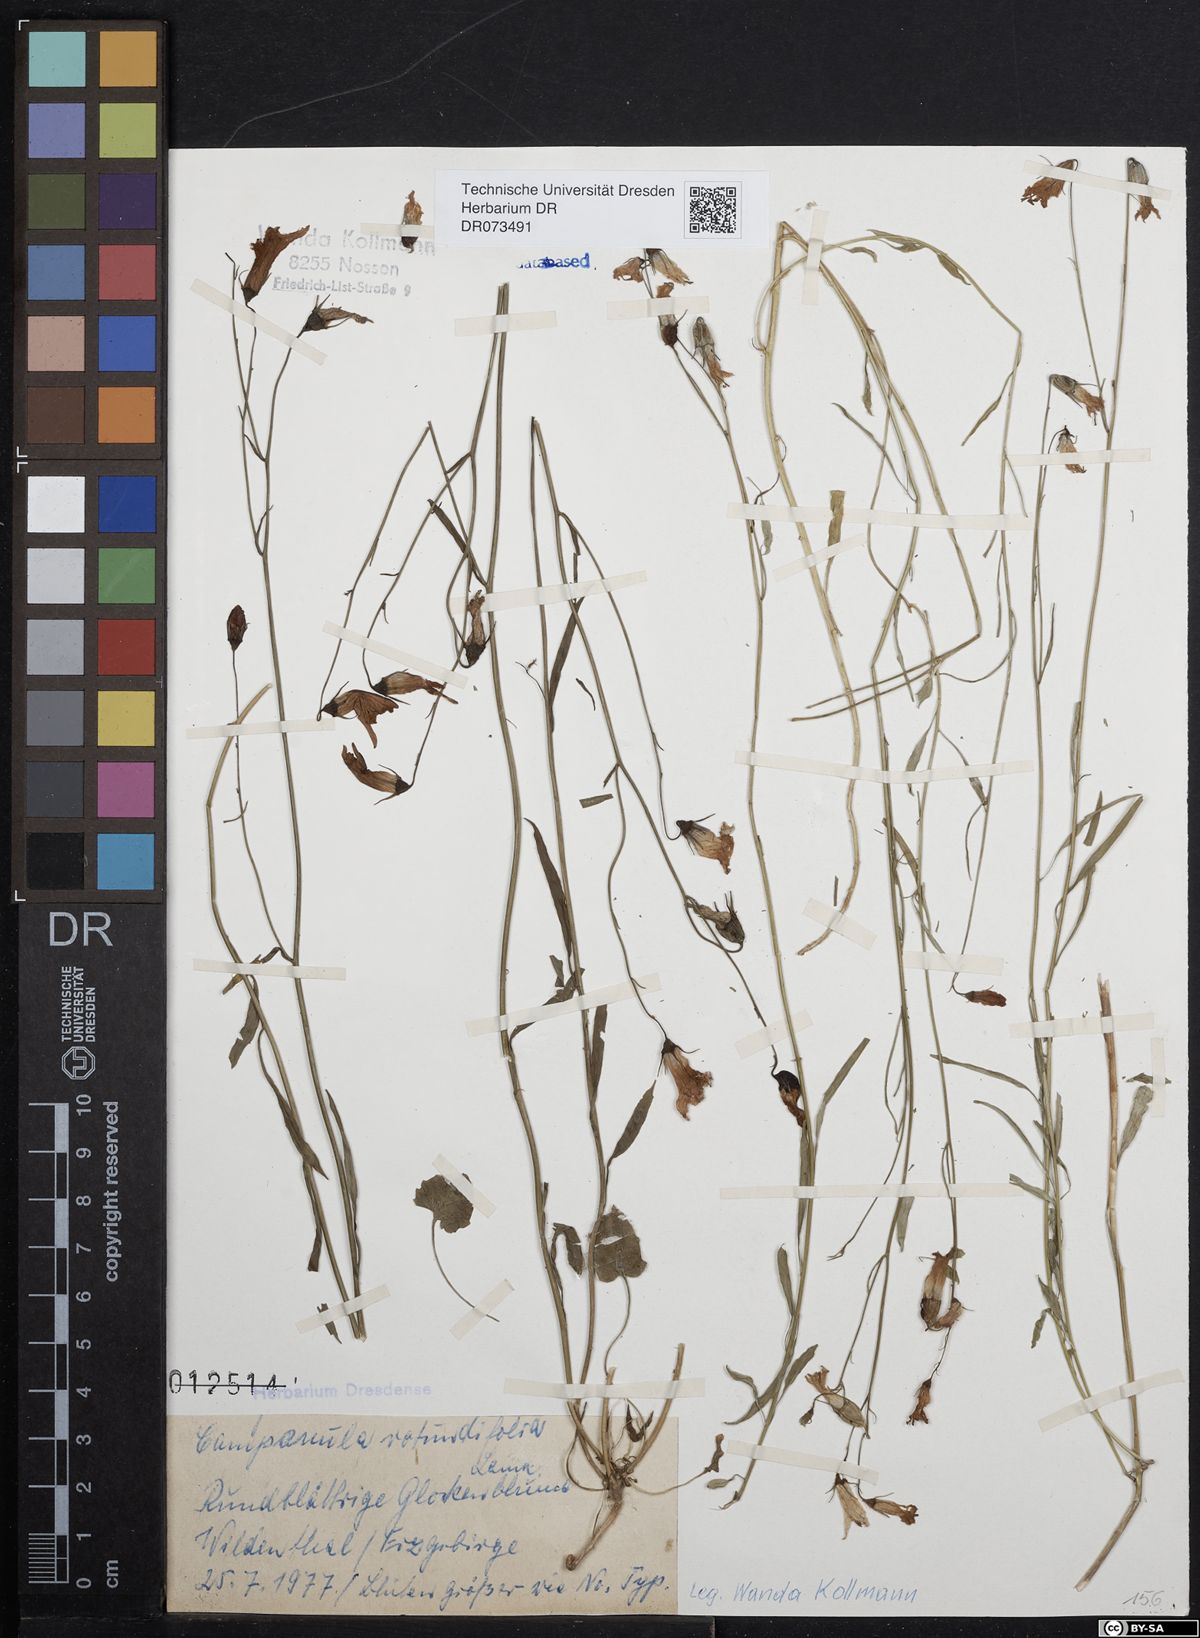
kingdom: Plantae
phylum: Tracheophyta
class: Magnoliopsida
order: Asterales
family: Campanulaceae
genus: Campanula
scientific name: Campanula rotundifolia
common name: Harebell
